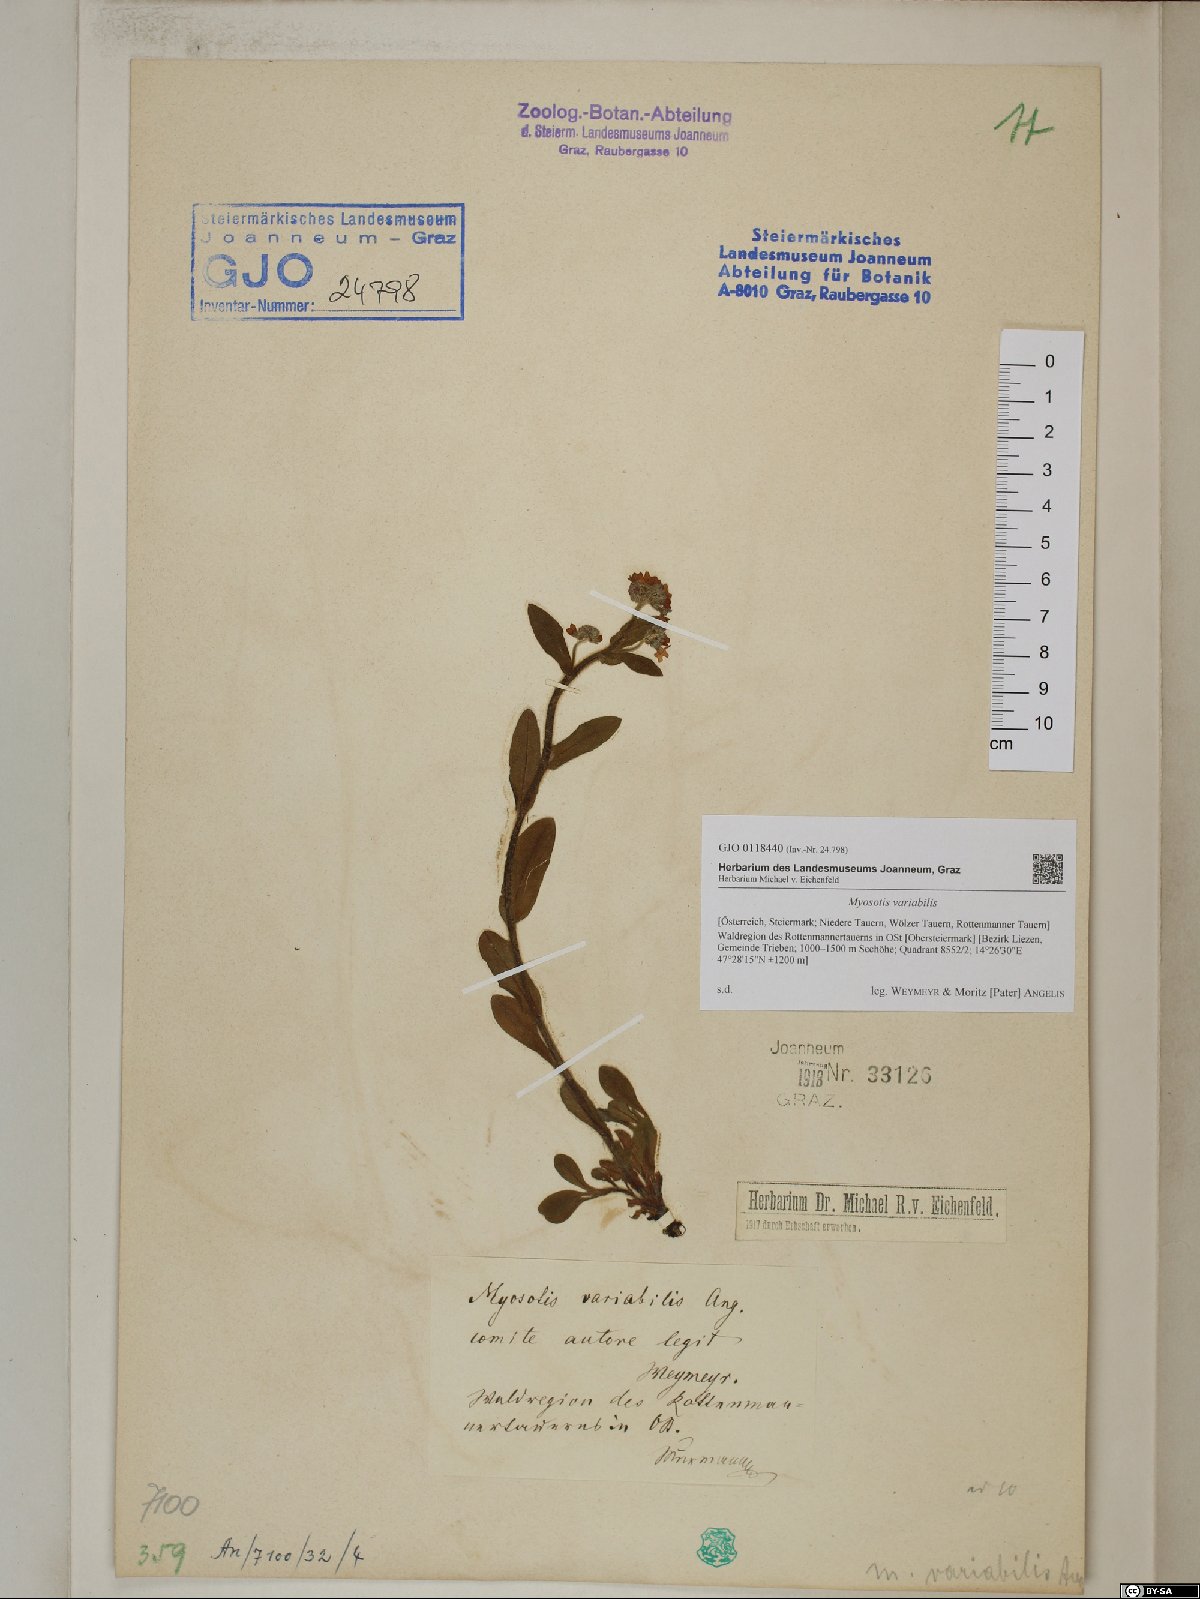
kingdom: Plantae
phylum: Tracheophyta
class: Magnoliopsida
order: Boraginales
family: Boraginaceae
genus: Myosotis
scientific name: Myosotis decumbens
